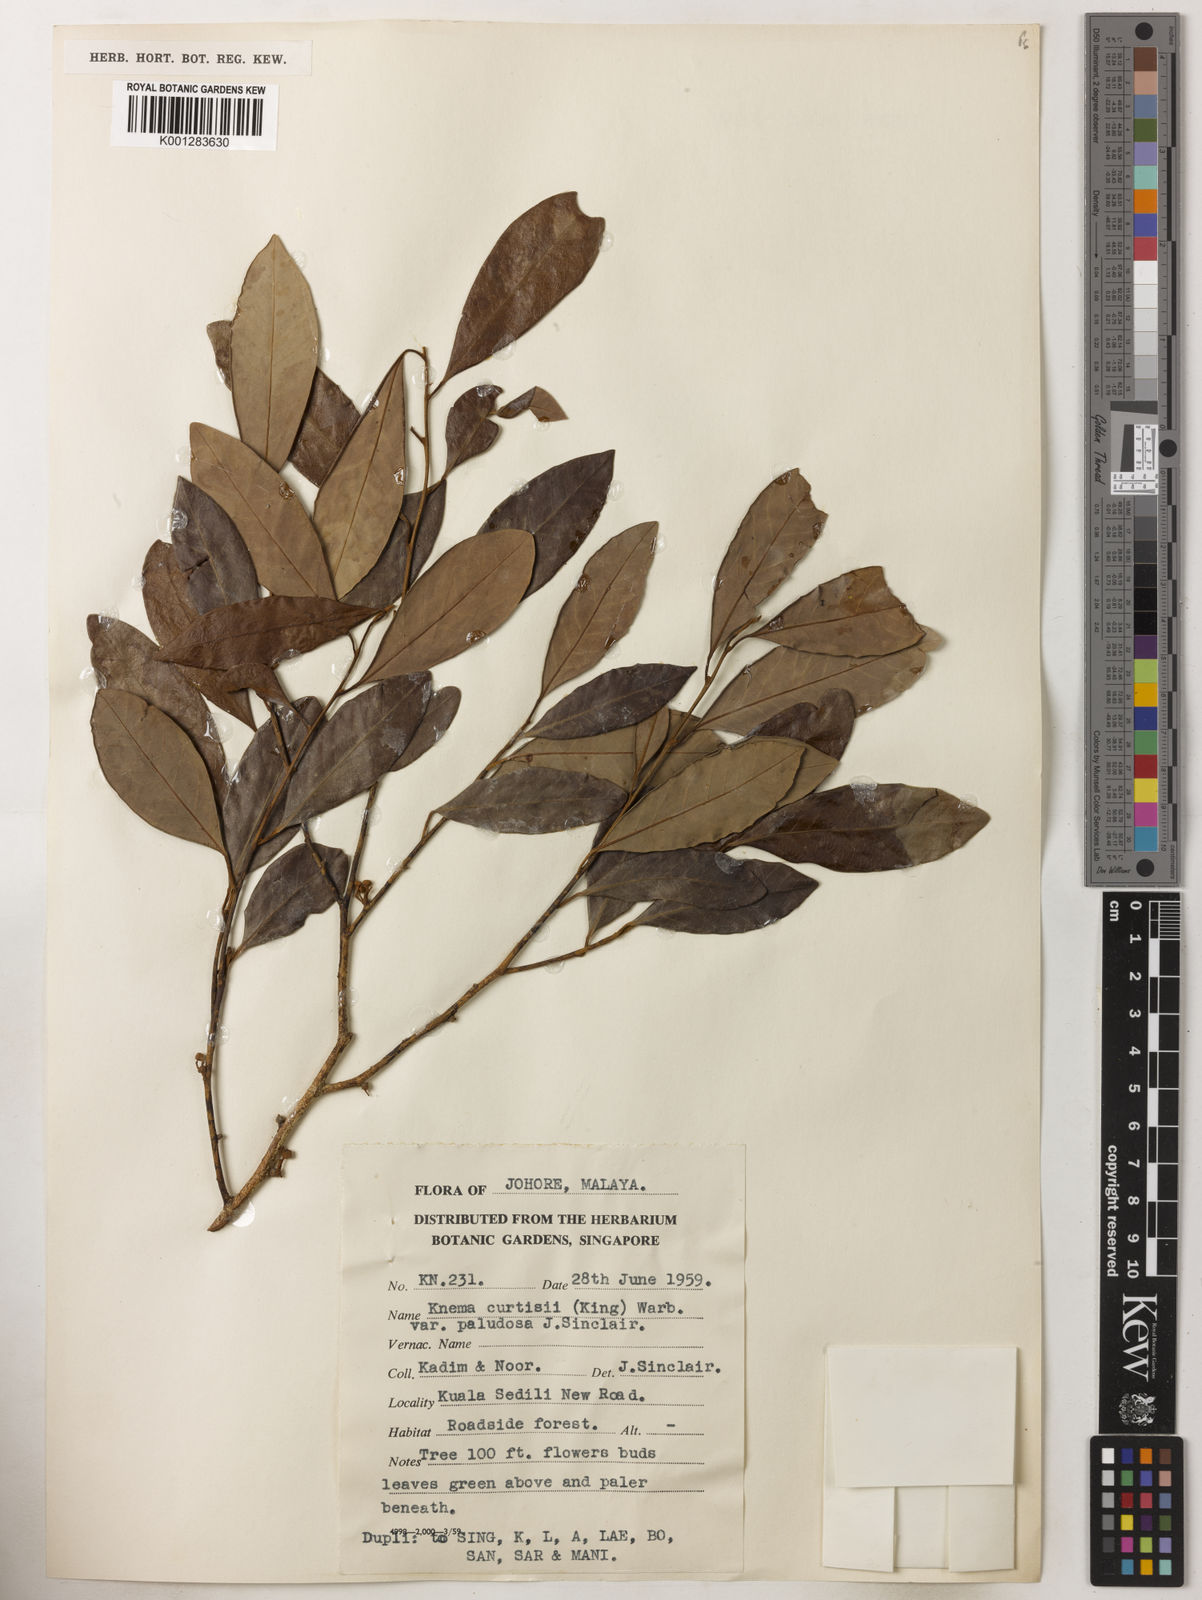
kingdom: Plantae
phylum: Tracheophyta
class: Magnoliopsida
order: Magnoliales
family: Myristicaceae
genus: Knema
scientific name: Knema
